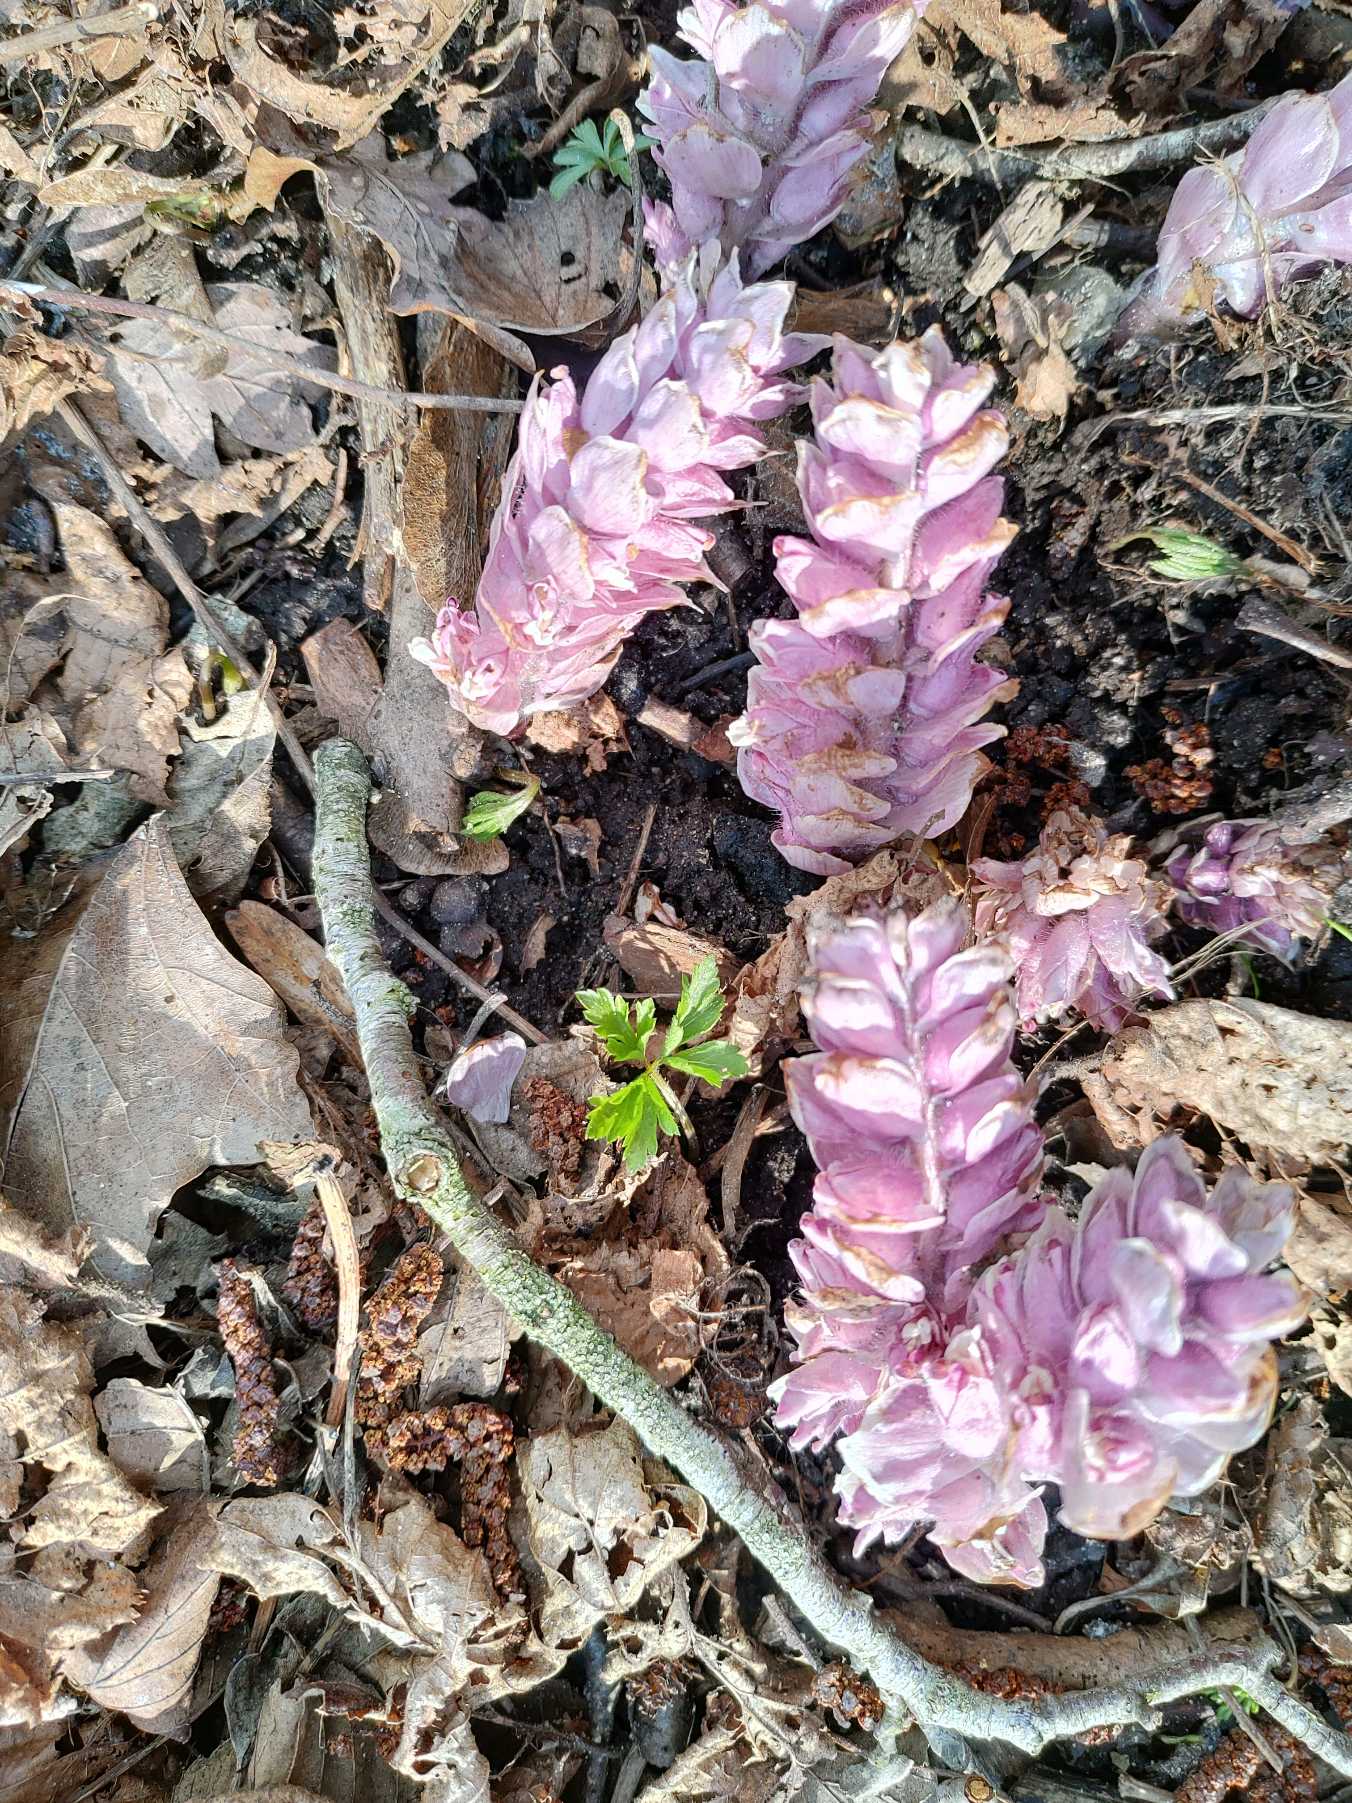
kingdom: Plantae
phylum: Tracheophyta
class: Magnoliopsida
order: Lamiales
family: Orobanchaceae
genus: Lathraea
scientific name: Lathraea squamaria
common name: Skælrod
